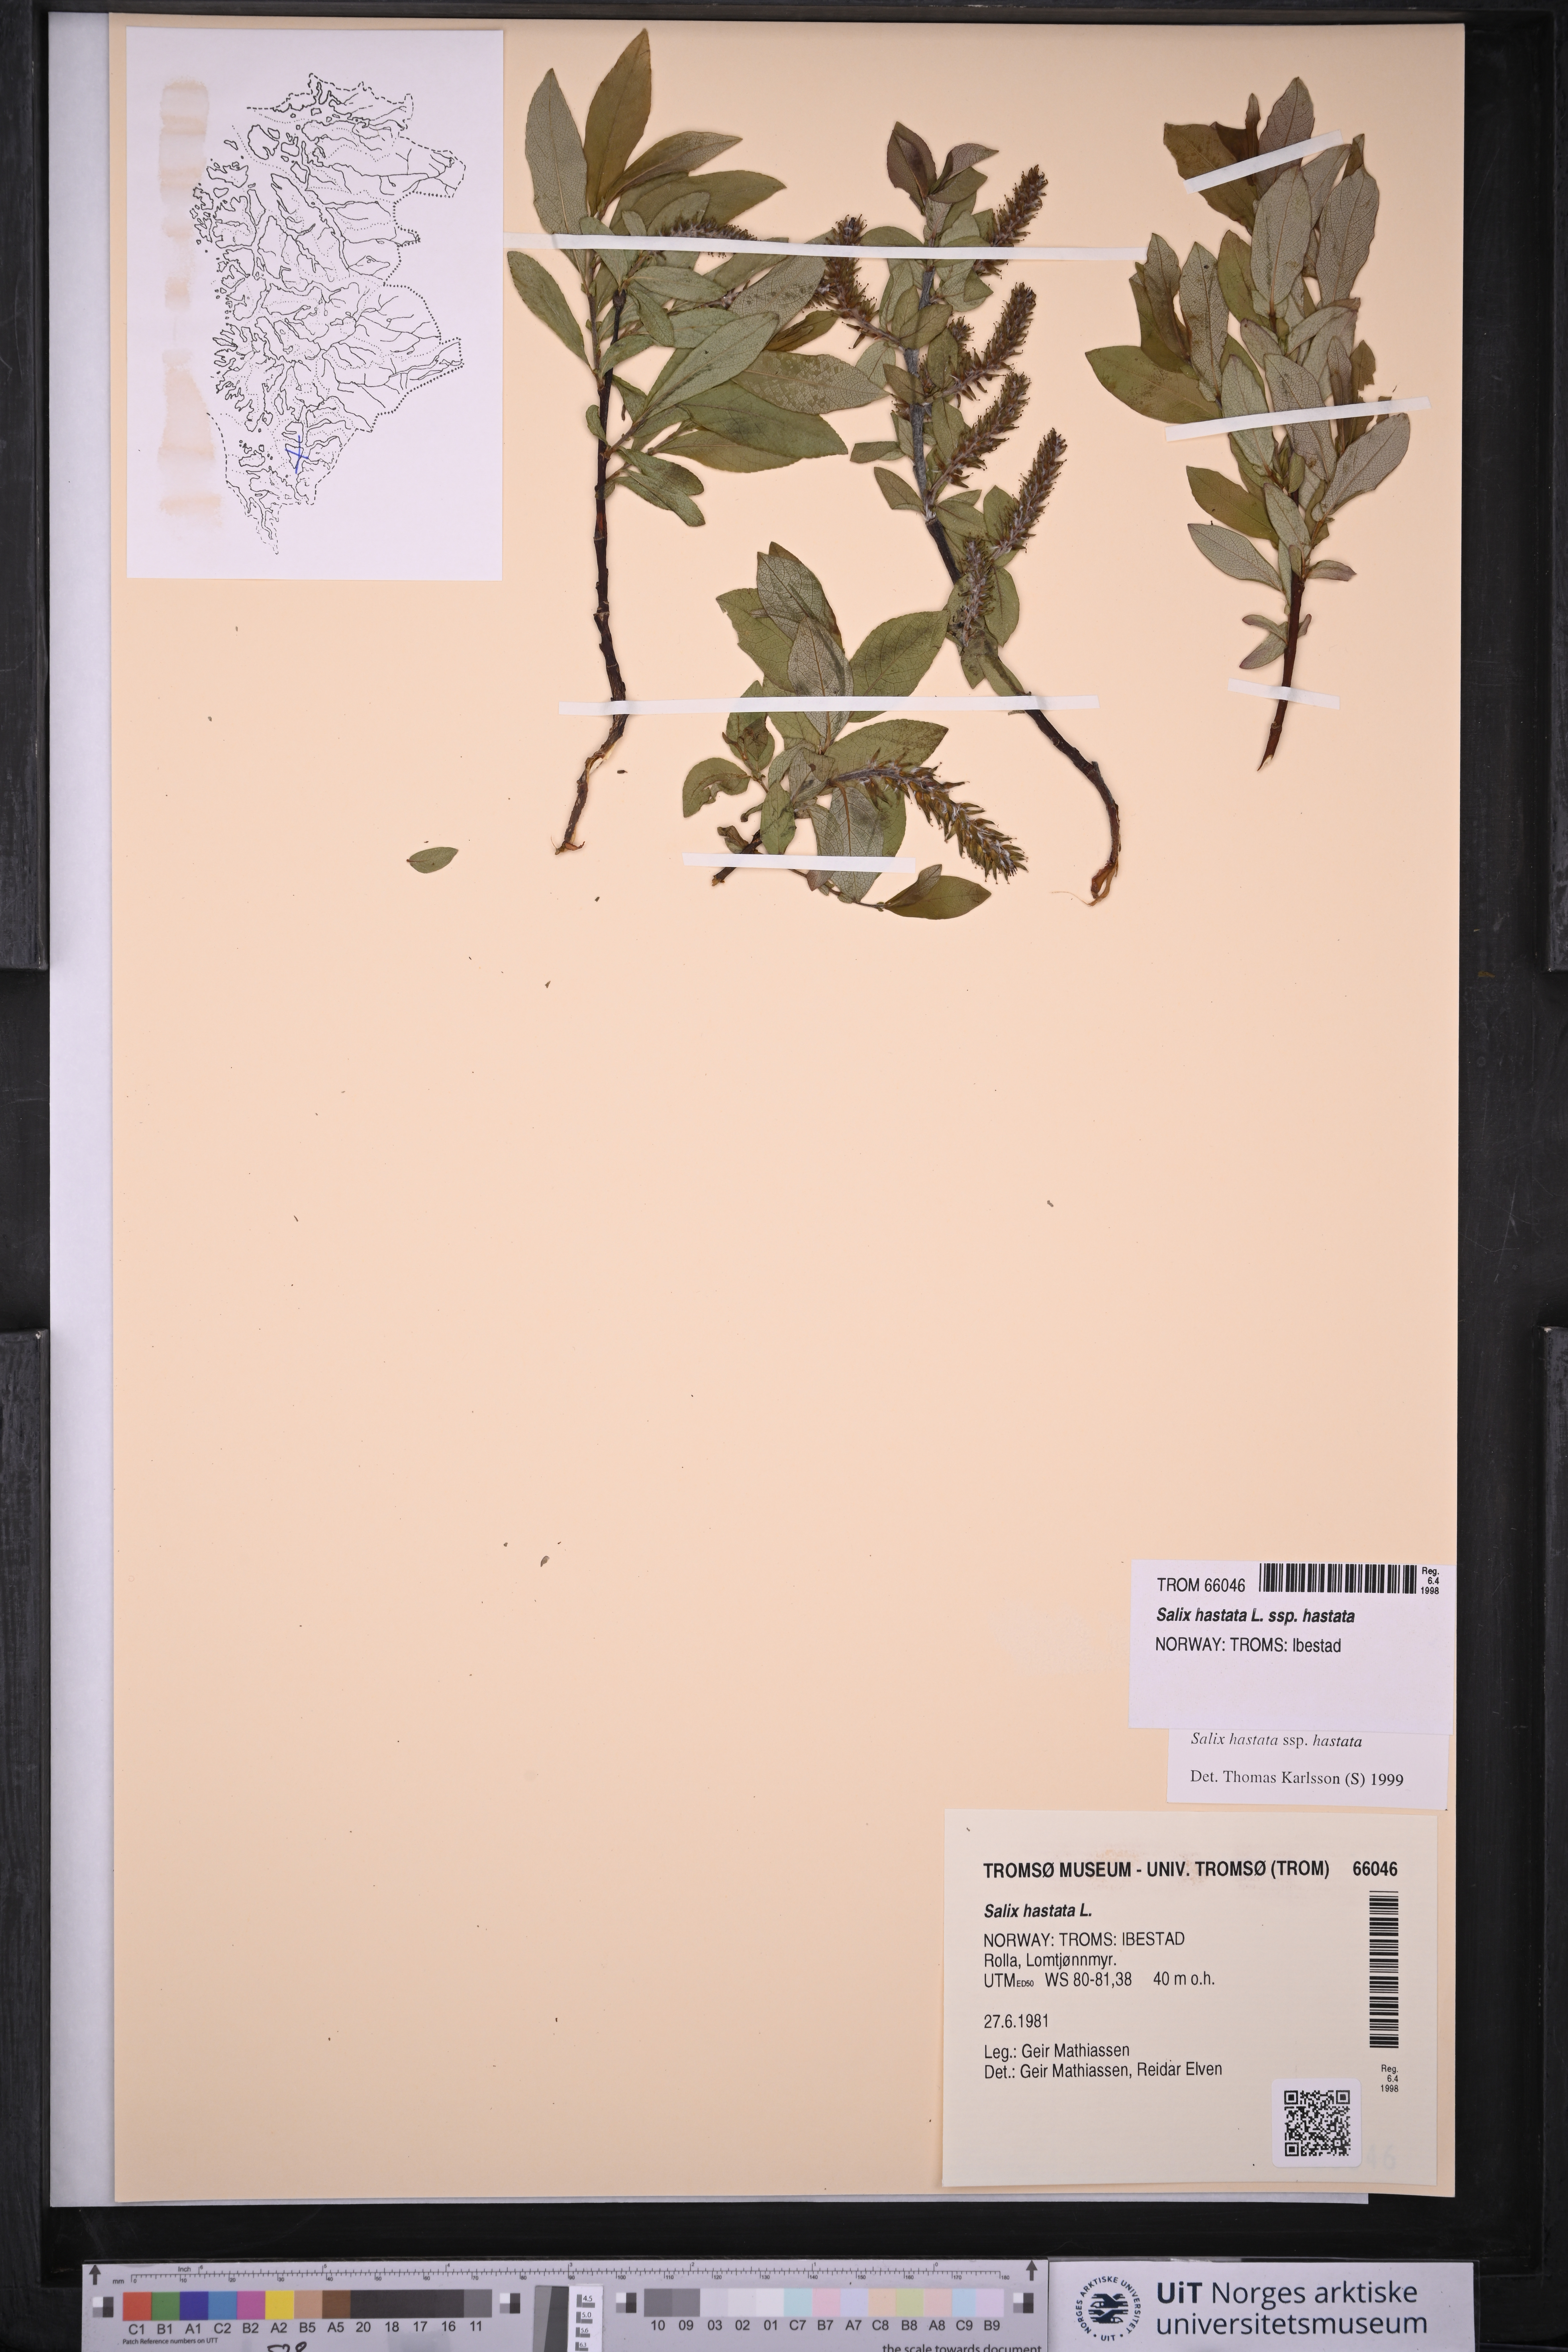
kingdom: Plantae
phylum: Tracheophyta
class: Magnoliopsida
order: Malpighiales
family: Salicaceae
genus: Salix
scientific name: Salix hastata
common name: Halberd willow
